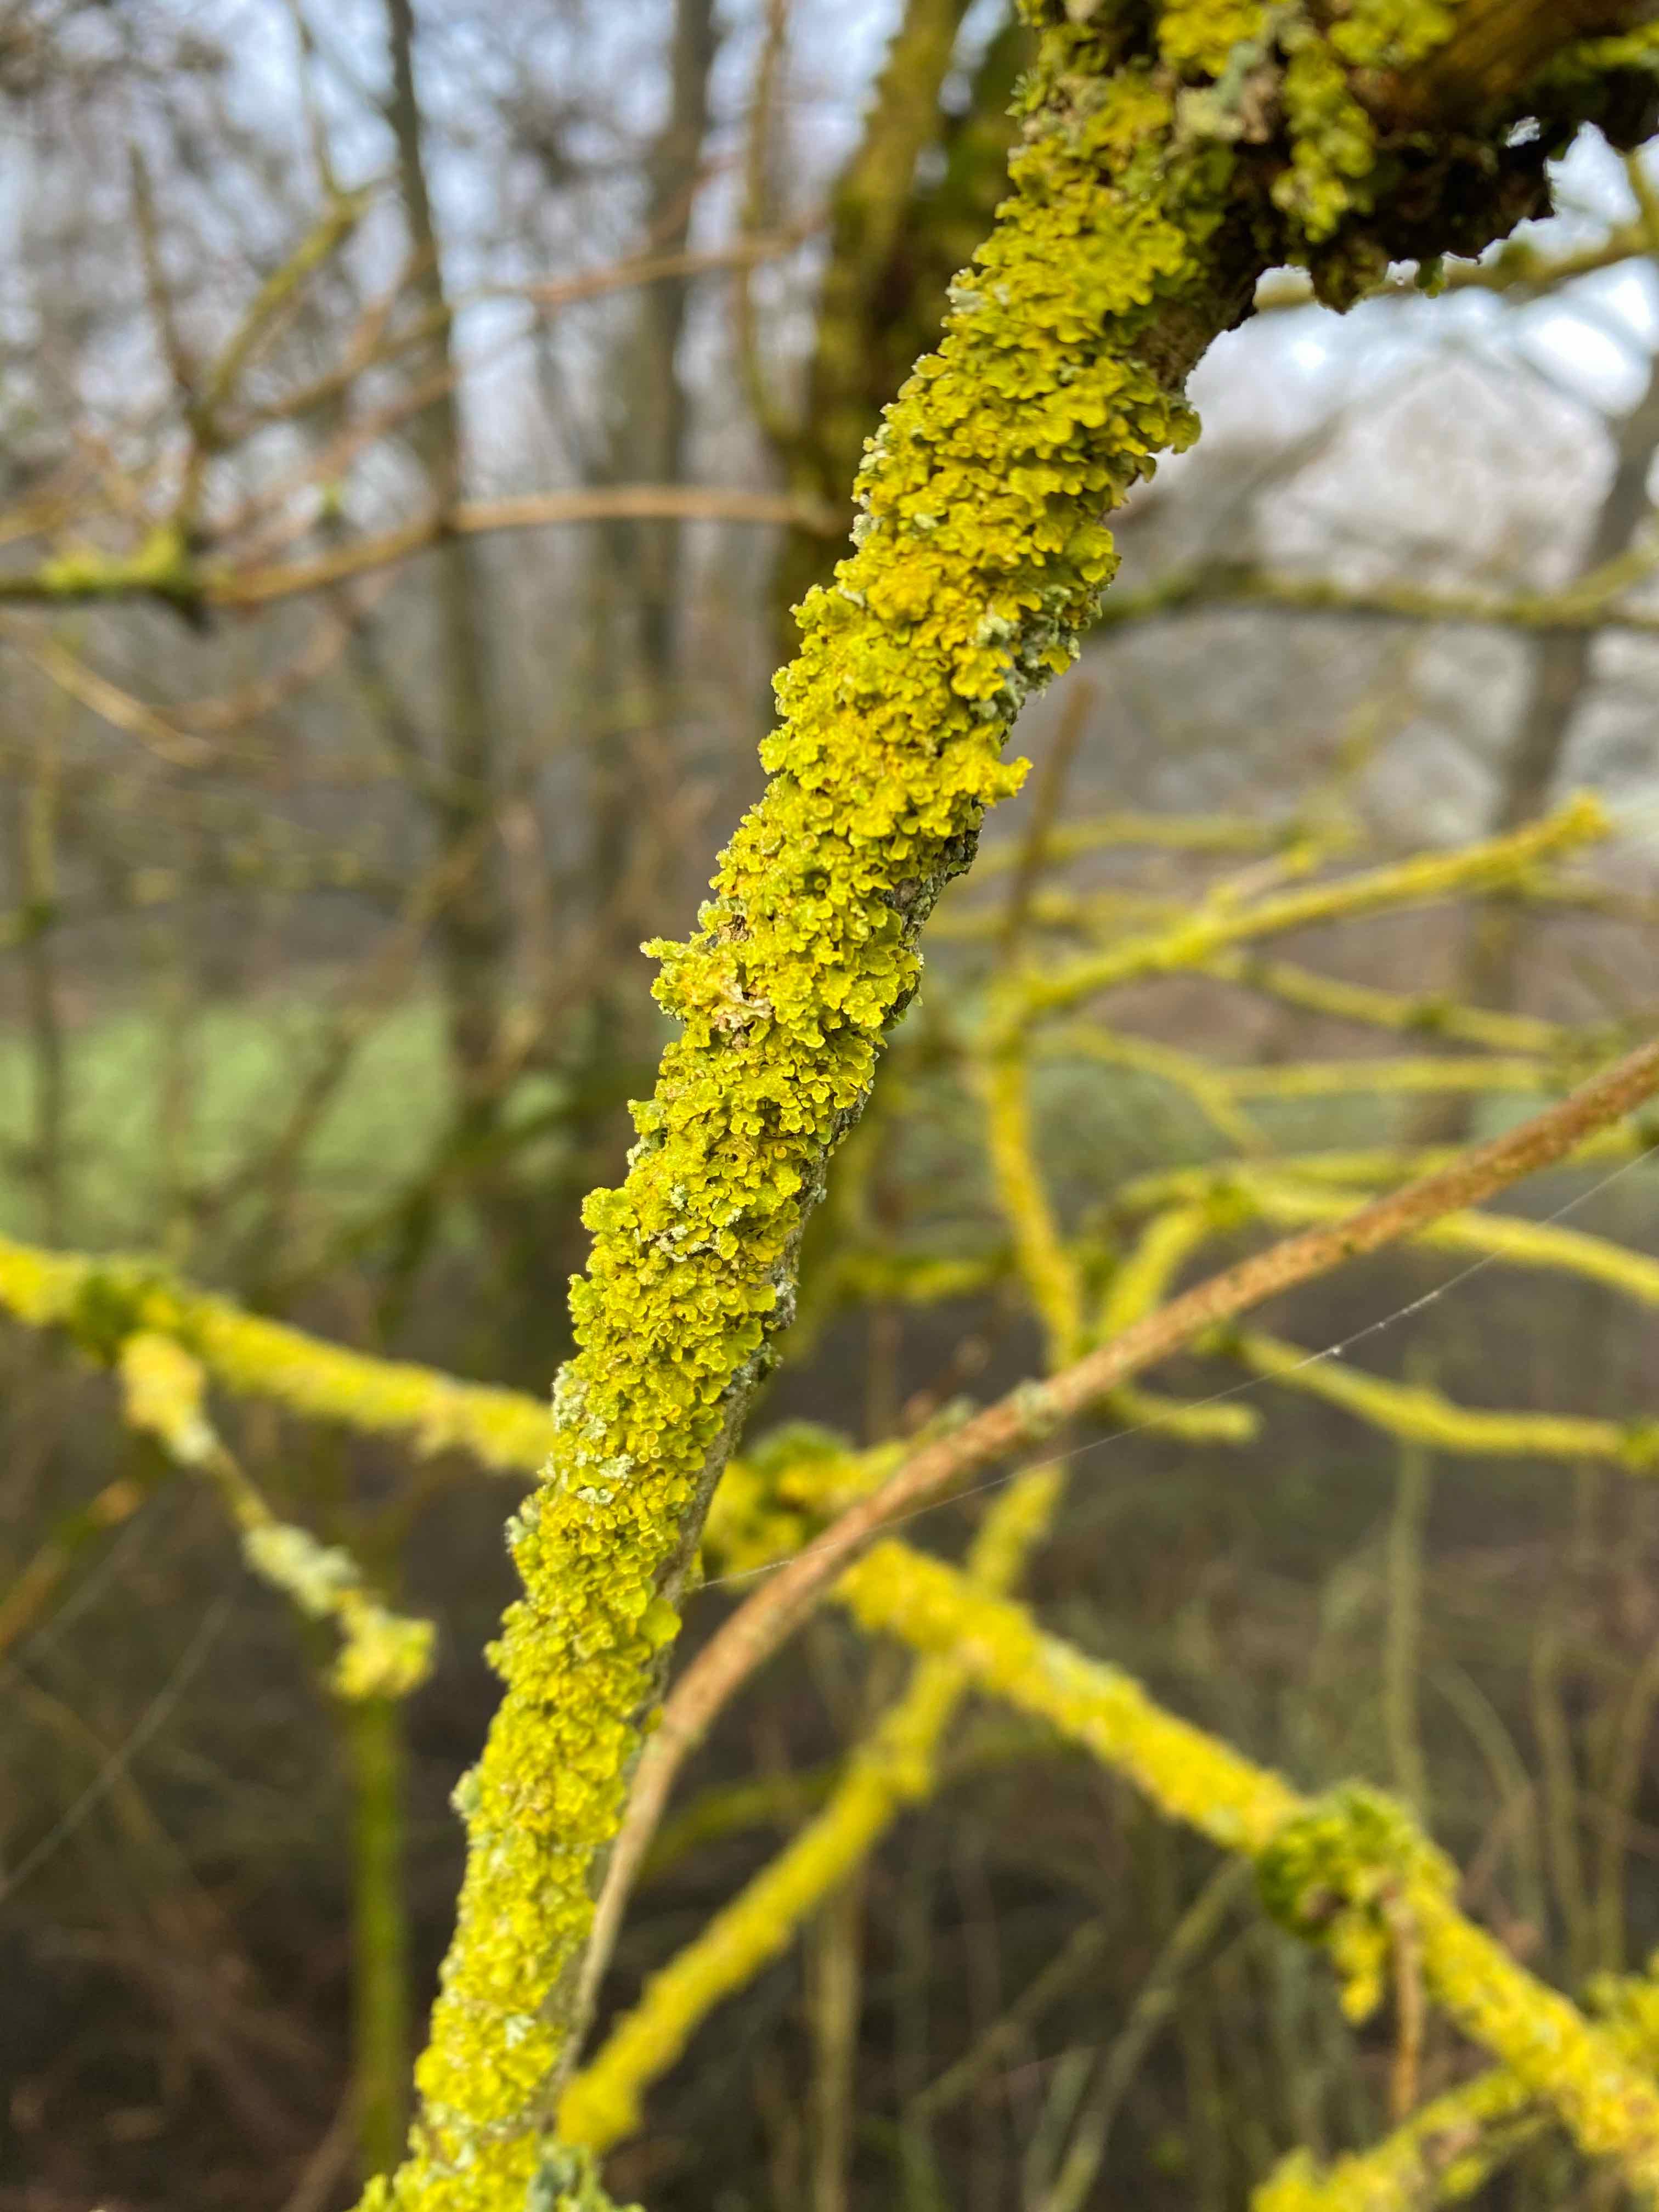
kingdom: Fungi
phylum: Ascomycota
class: Lecanoromycetes
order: Teloschistales
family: Teloschistaceae
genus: Xanthoria
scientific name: Xanthoria parietina
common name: almindelig væggelav
